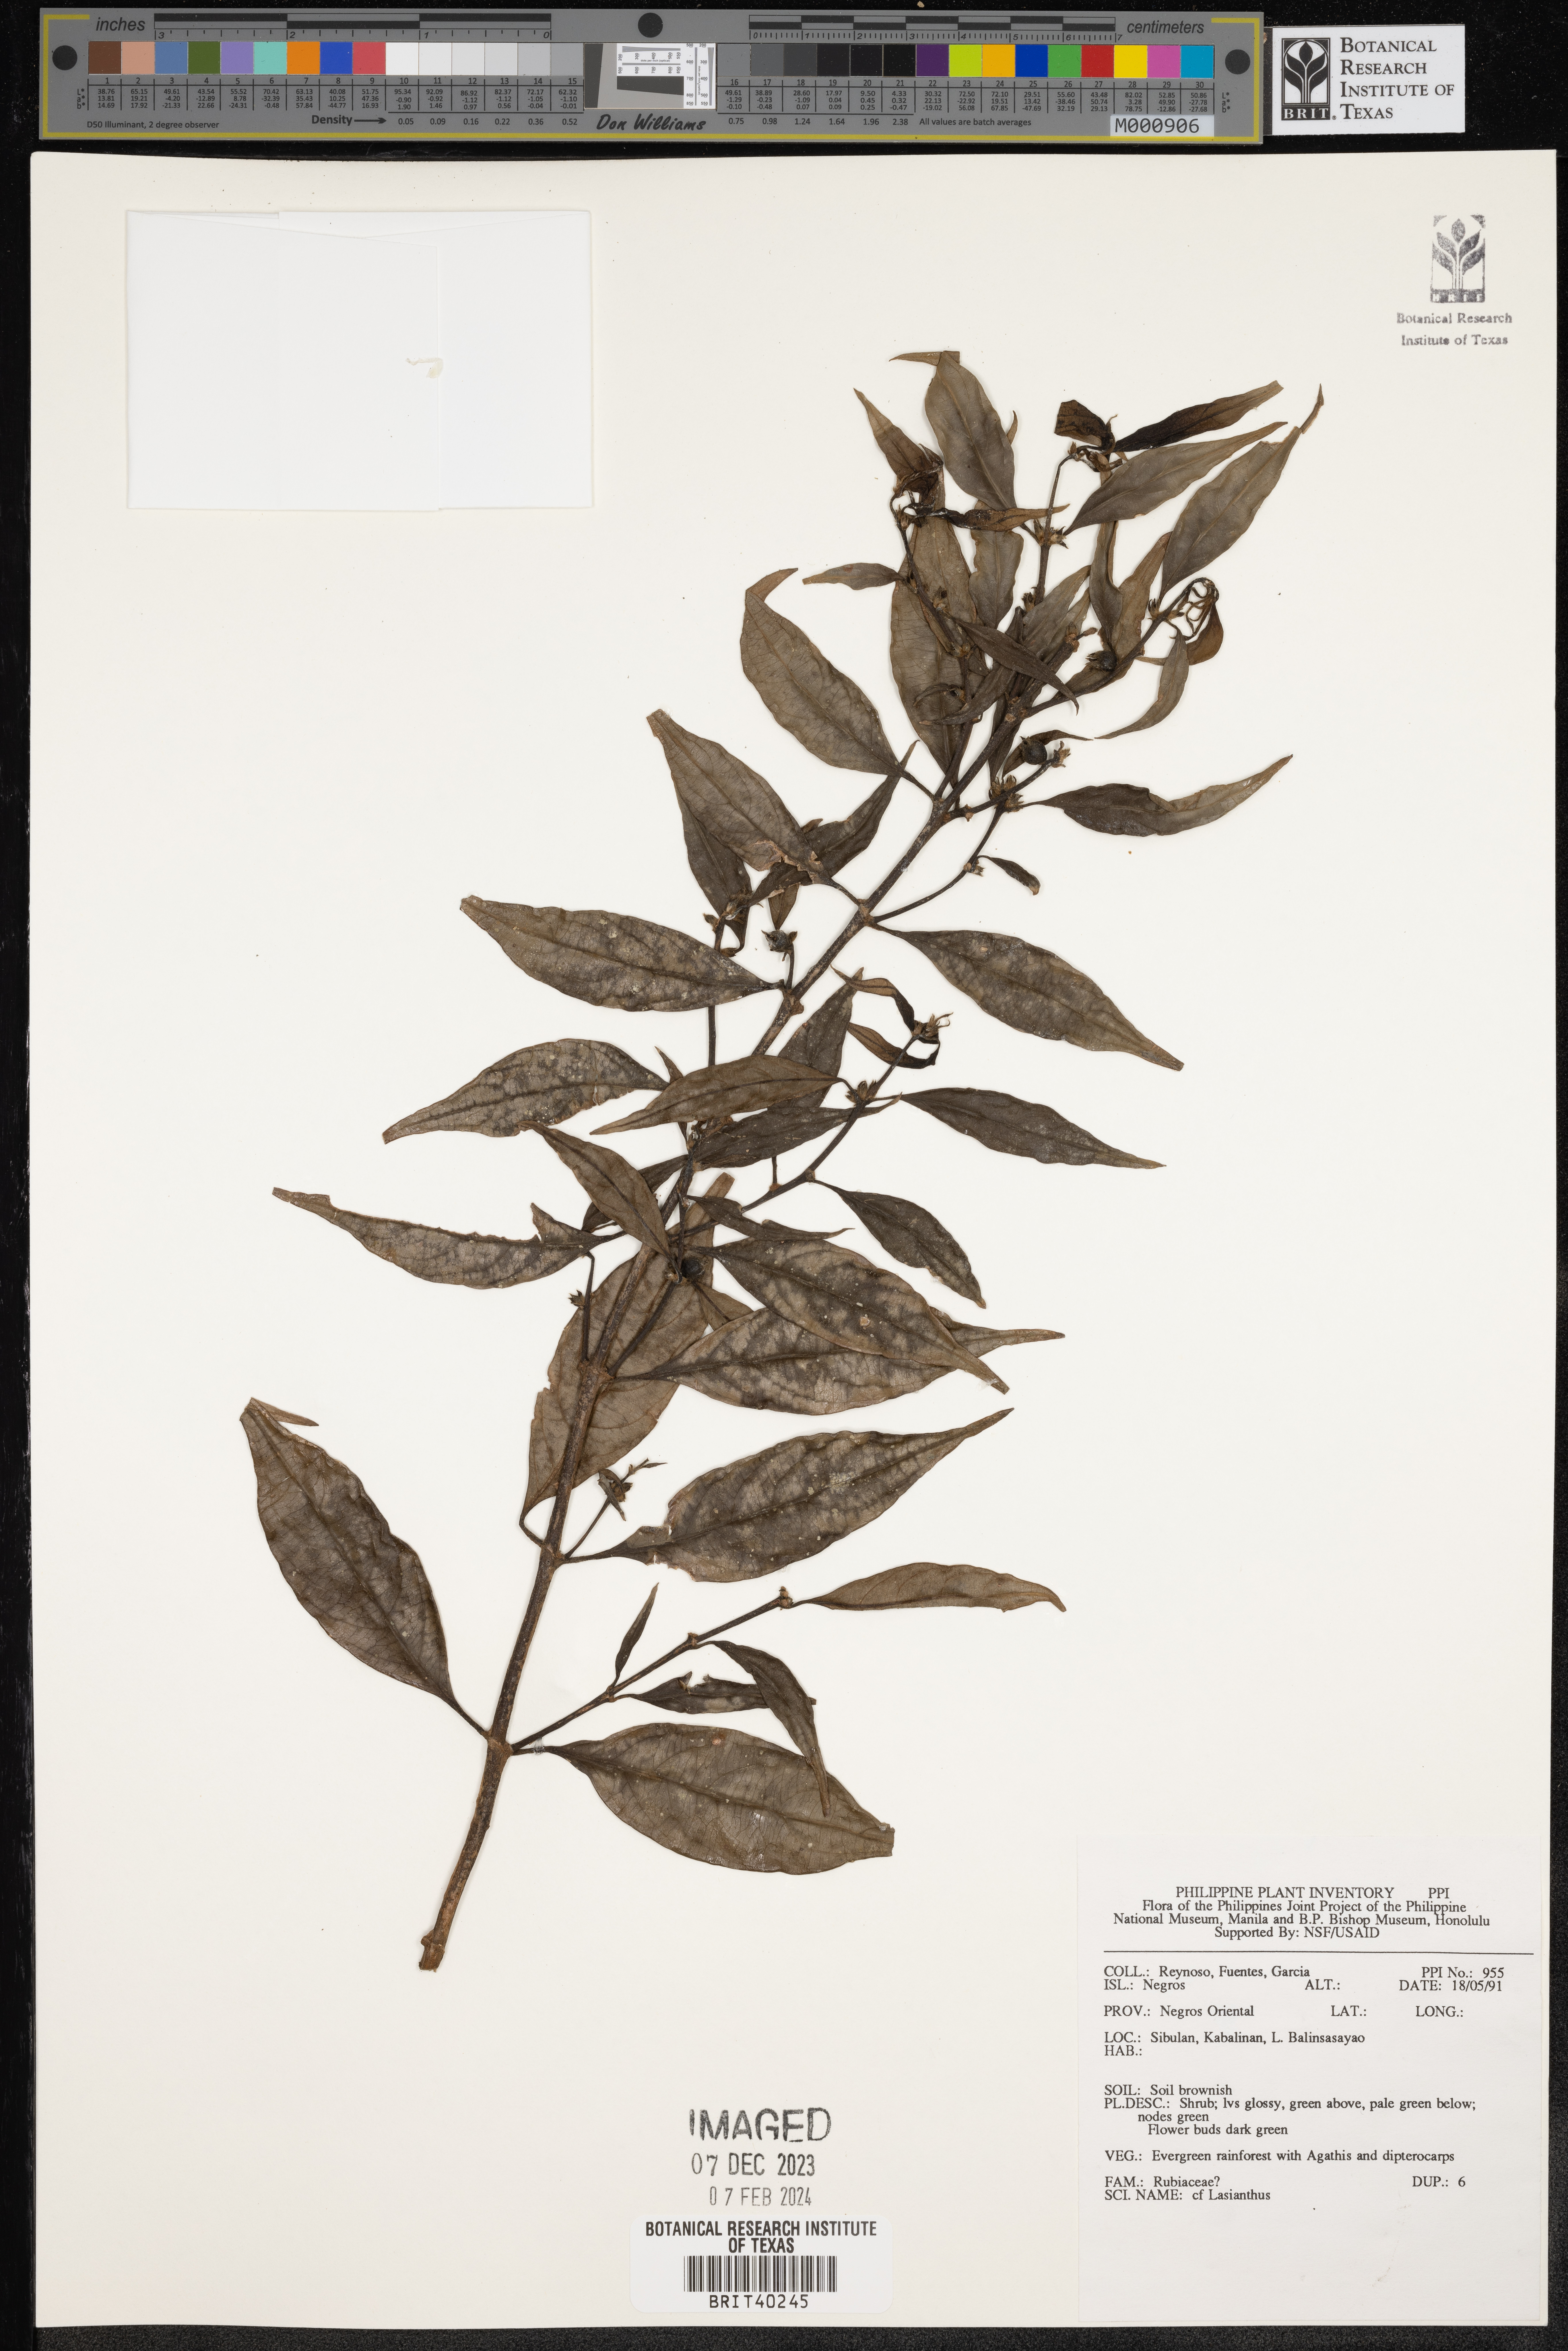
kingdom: Plantae
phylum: Tracheophyta
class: Magnoliopsida
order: Gentianales
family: Rubiaceae
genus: Lasianthus
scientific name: Lasianthus
